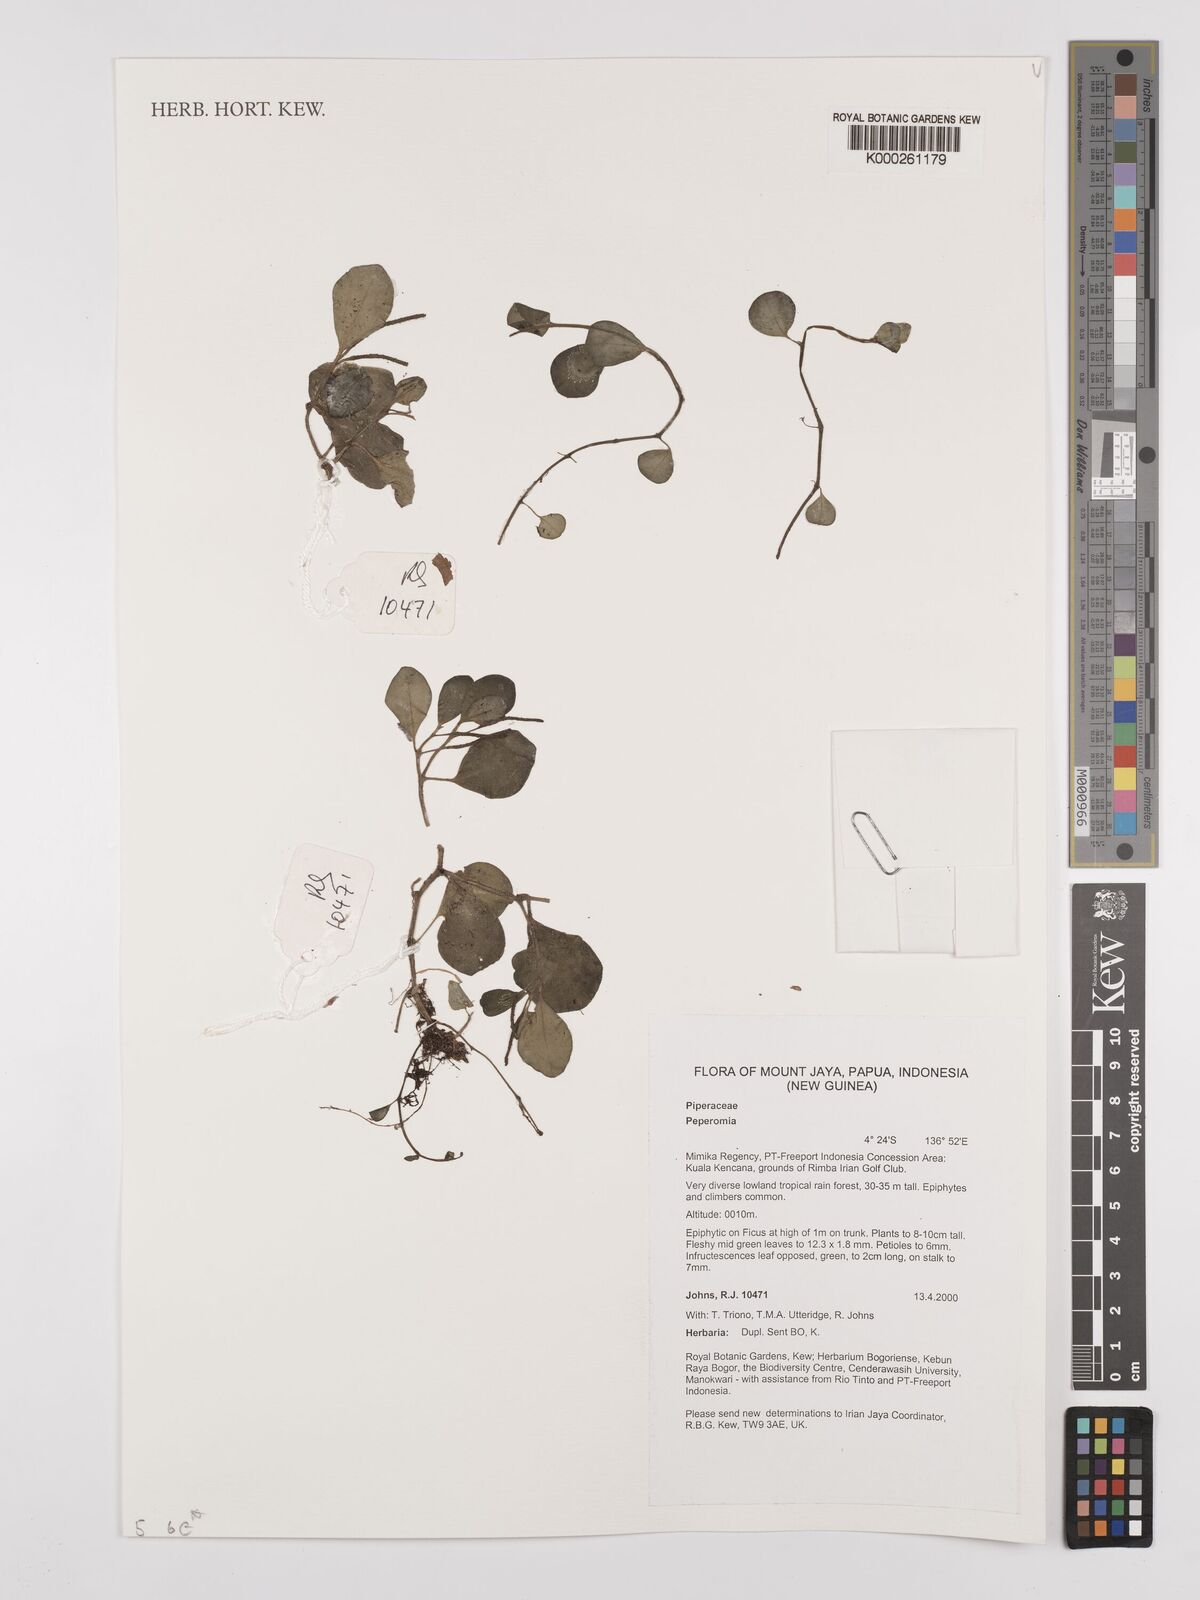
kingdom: Plantae
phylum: Tracheophyta
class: Magnoliopsida
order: Piperales
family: Piperaceae
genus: Peperomia
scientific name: Peperomia
